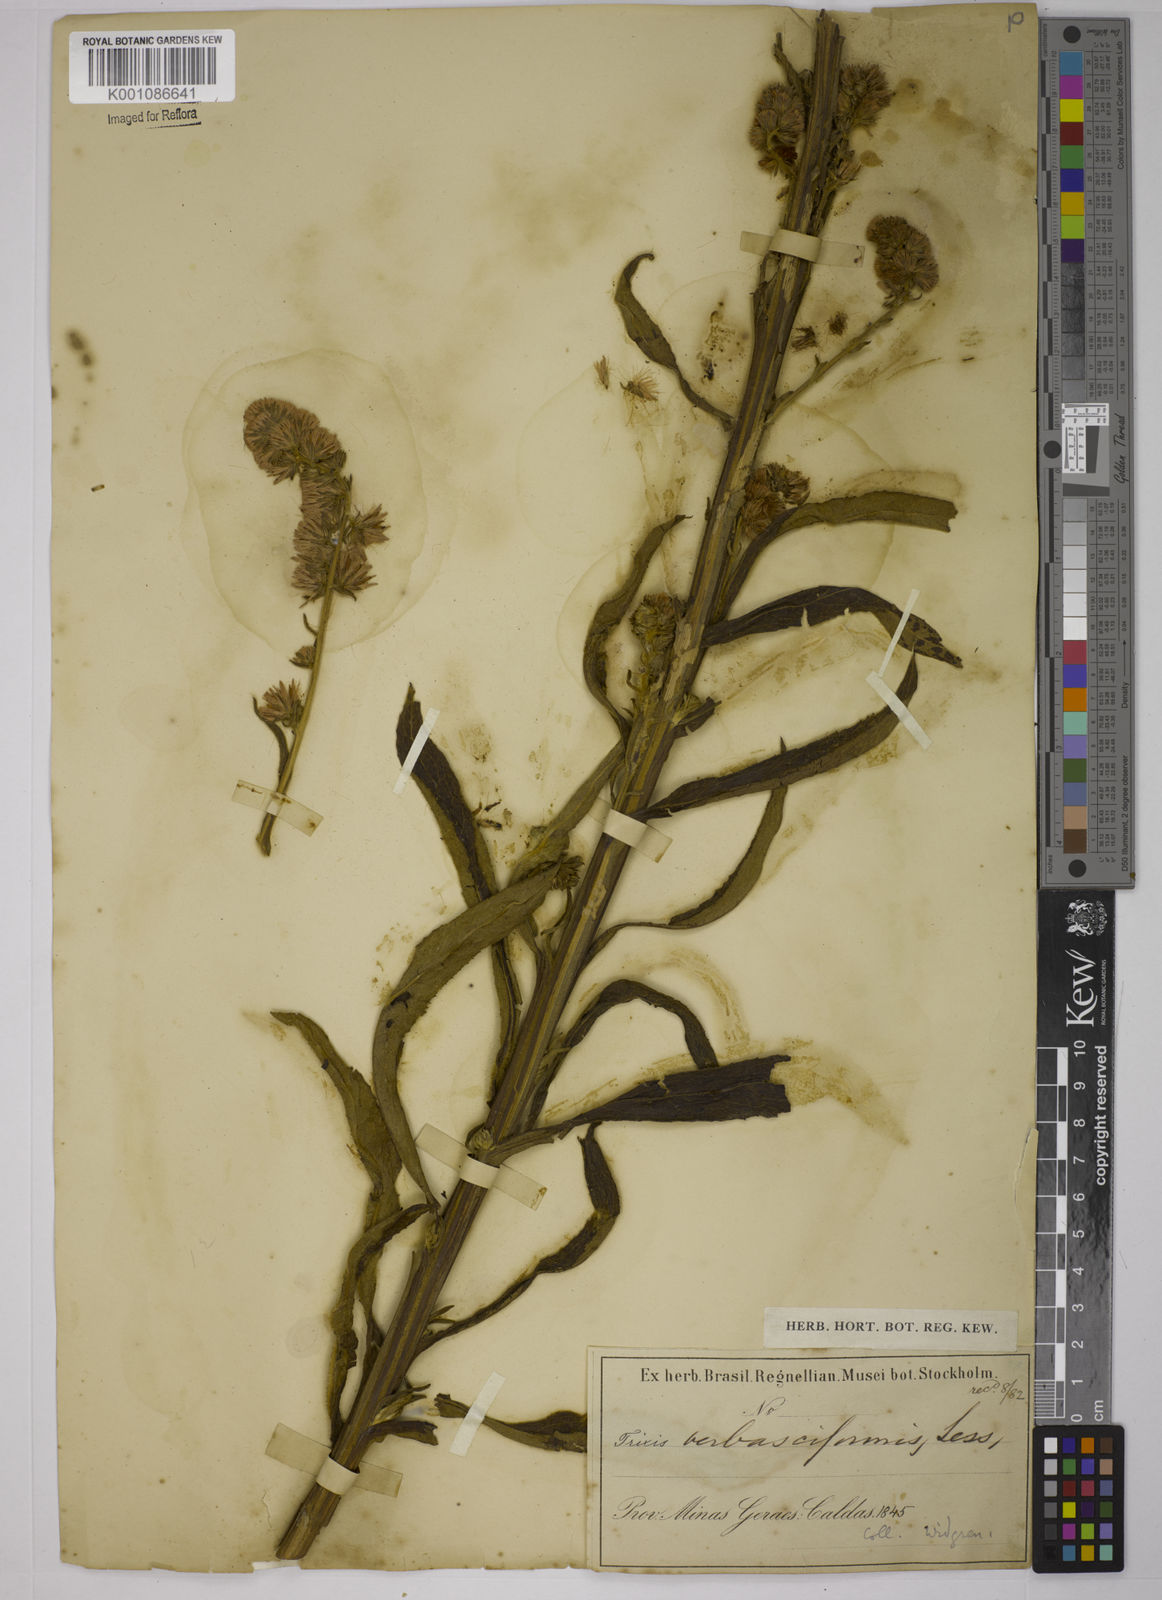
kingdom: Plantae
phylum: Tracheophyta
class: Magnoliopsida
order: Asterales
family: Asteraceae
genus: Trixis
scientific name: Trixis nobilis
